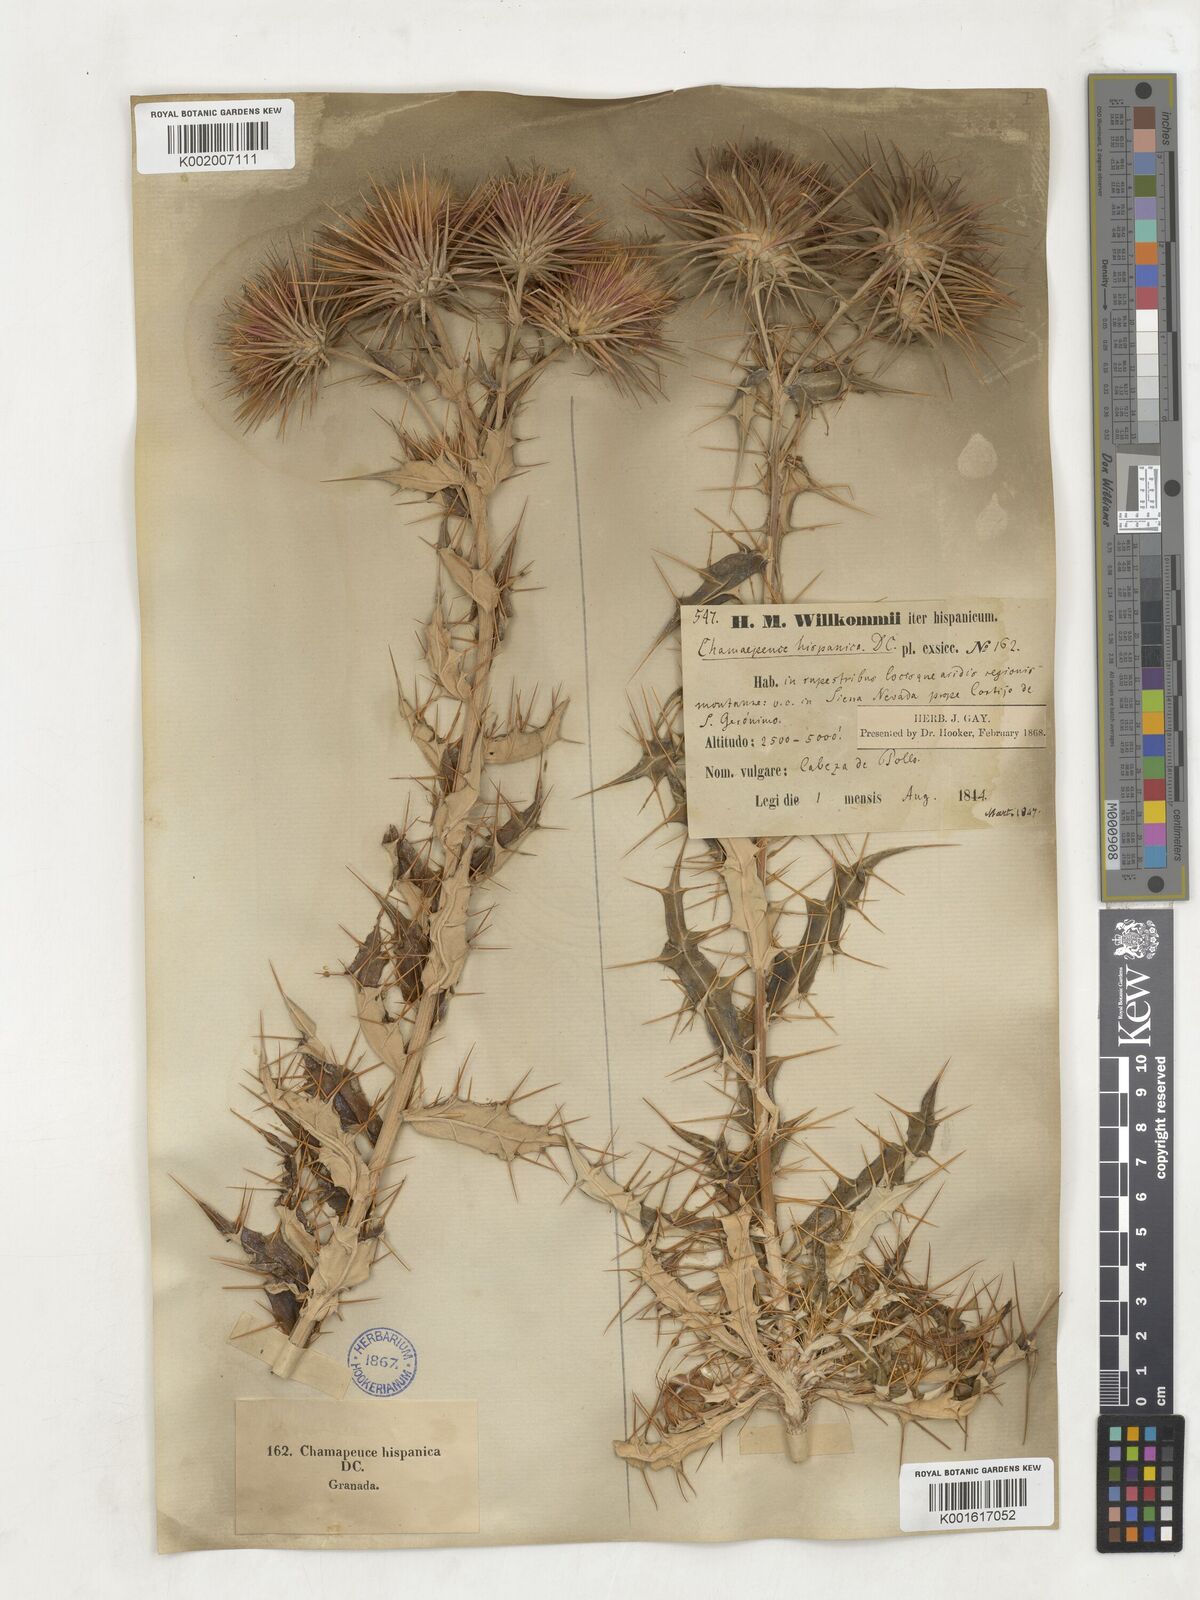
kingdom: Plantae
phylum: Tracheophyta
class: Magnoliopsida
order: Asterales
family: Asteraceae
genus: Ptilostemon
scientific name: Ptilostemon hispanicus
